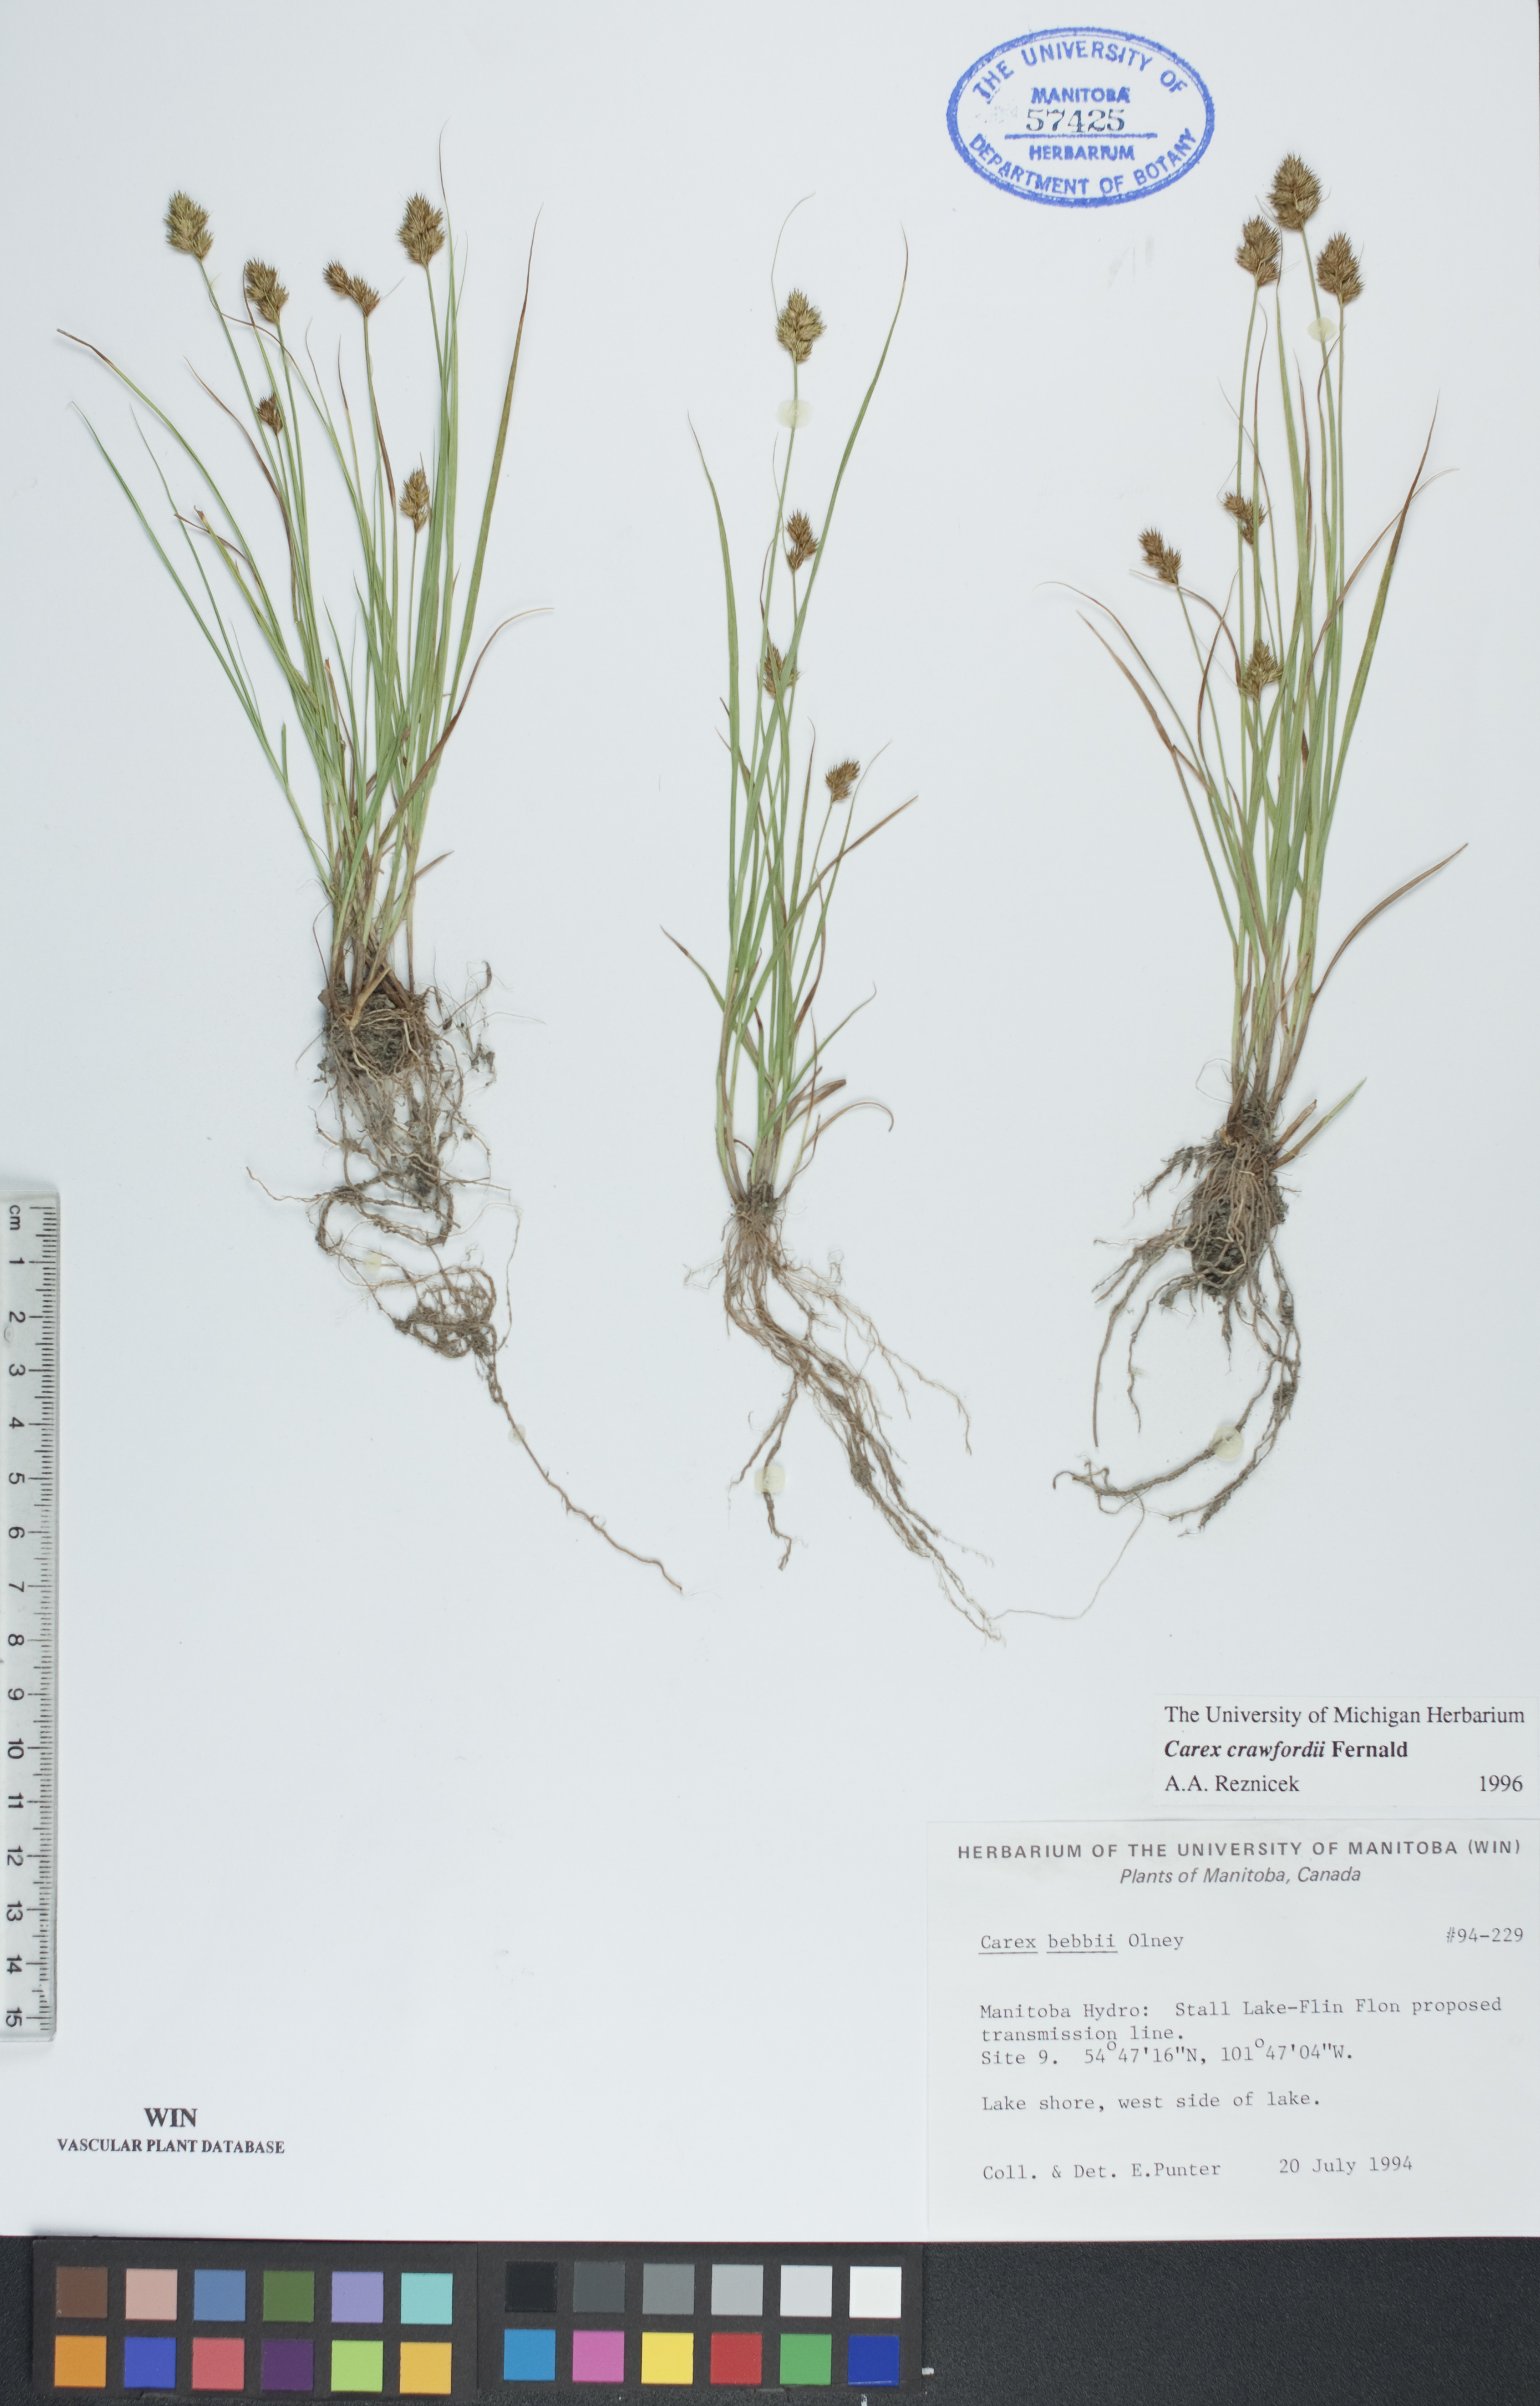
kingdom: Plantae
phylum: Tracheophyta
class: Liliopsida
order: Poales
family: Cyperaceae
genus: Carex
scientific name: Carex crawfordii
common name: Crawford's sedge
